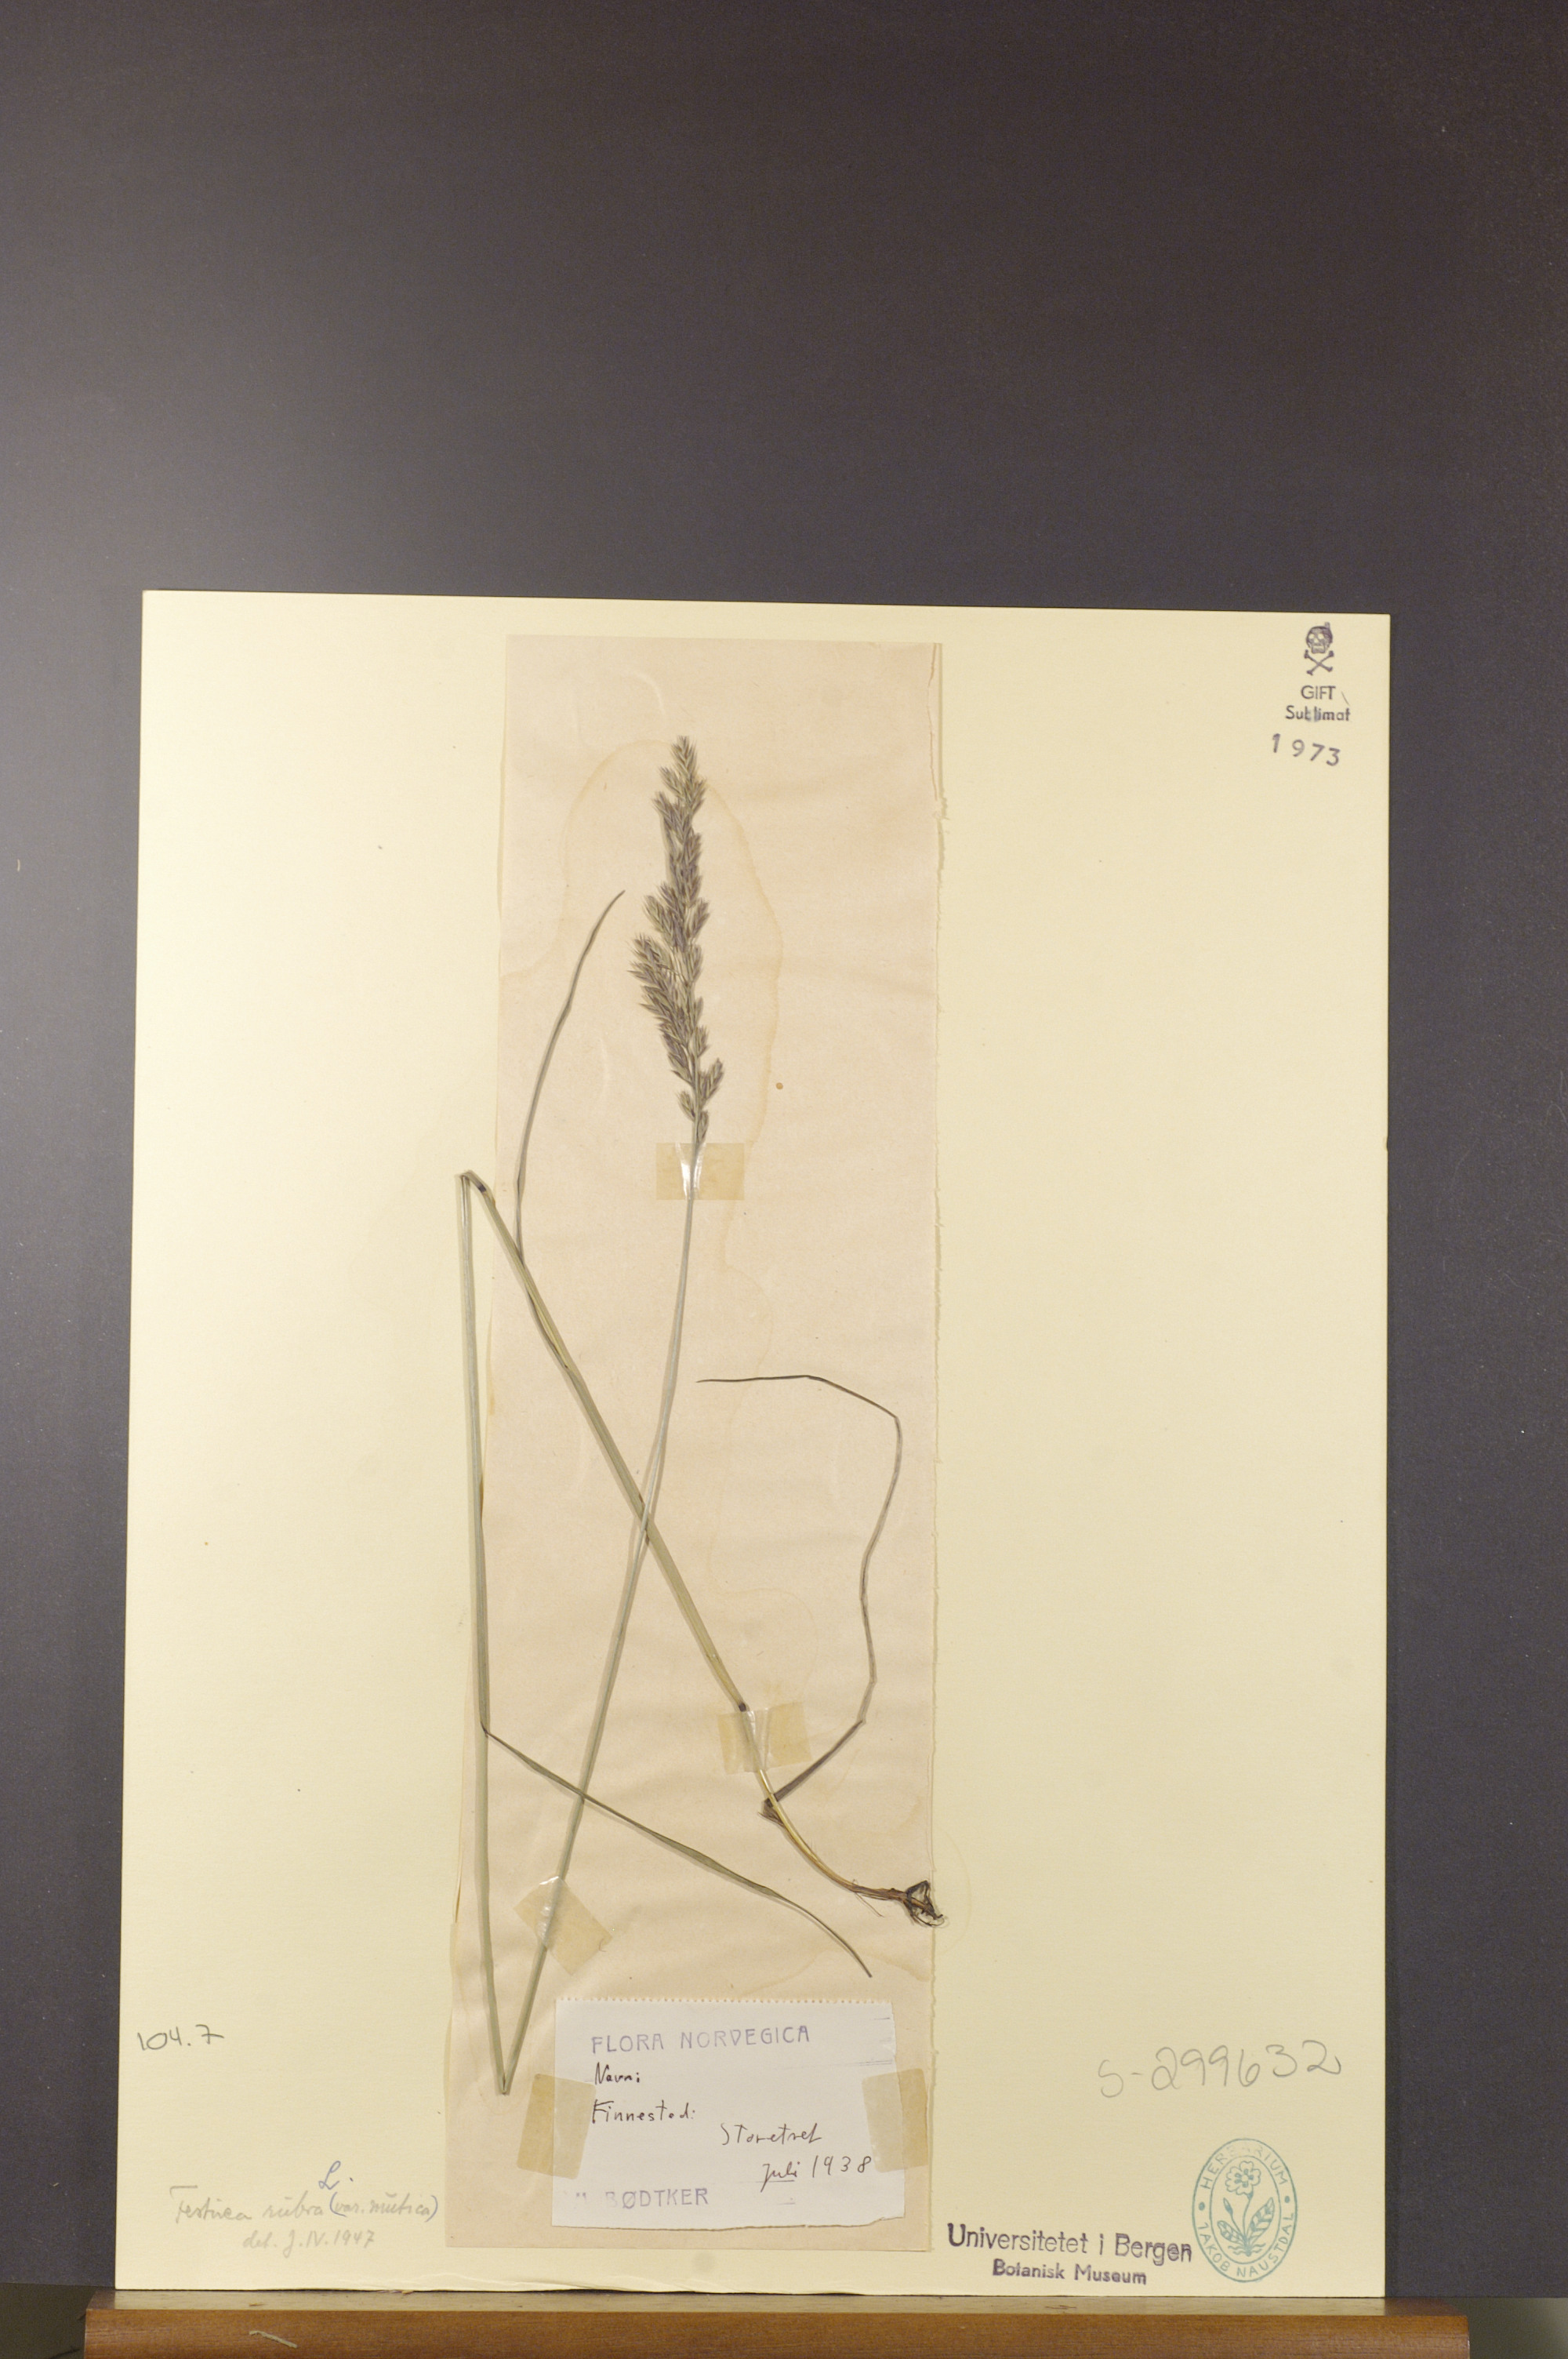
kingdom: Plantae
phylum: Tracheophyta
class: Liliopsida
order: Poales
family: Poaceae
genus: Festuca
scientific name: Festuca rubra
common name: Red fescue
